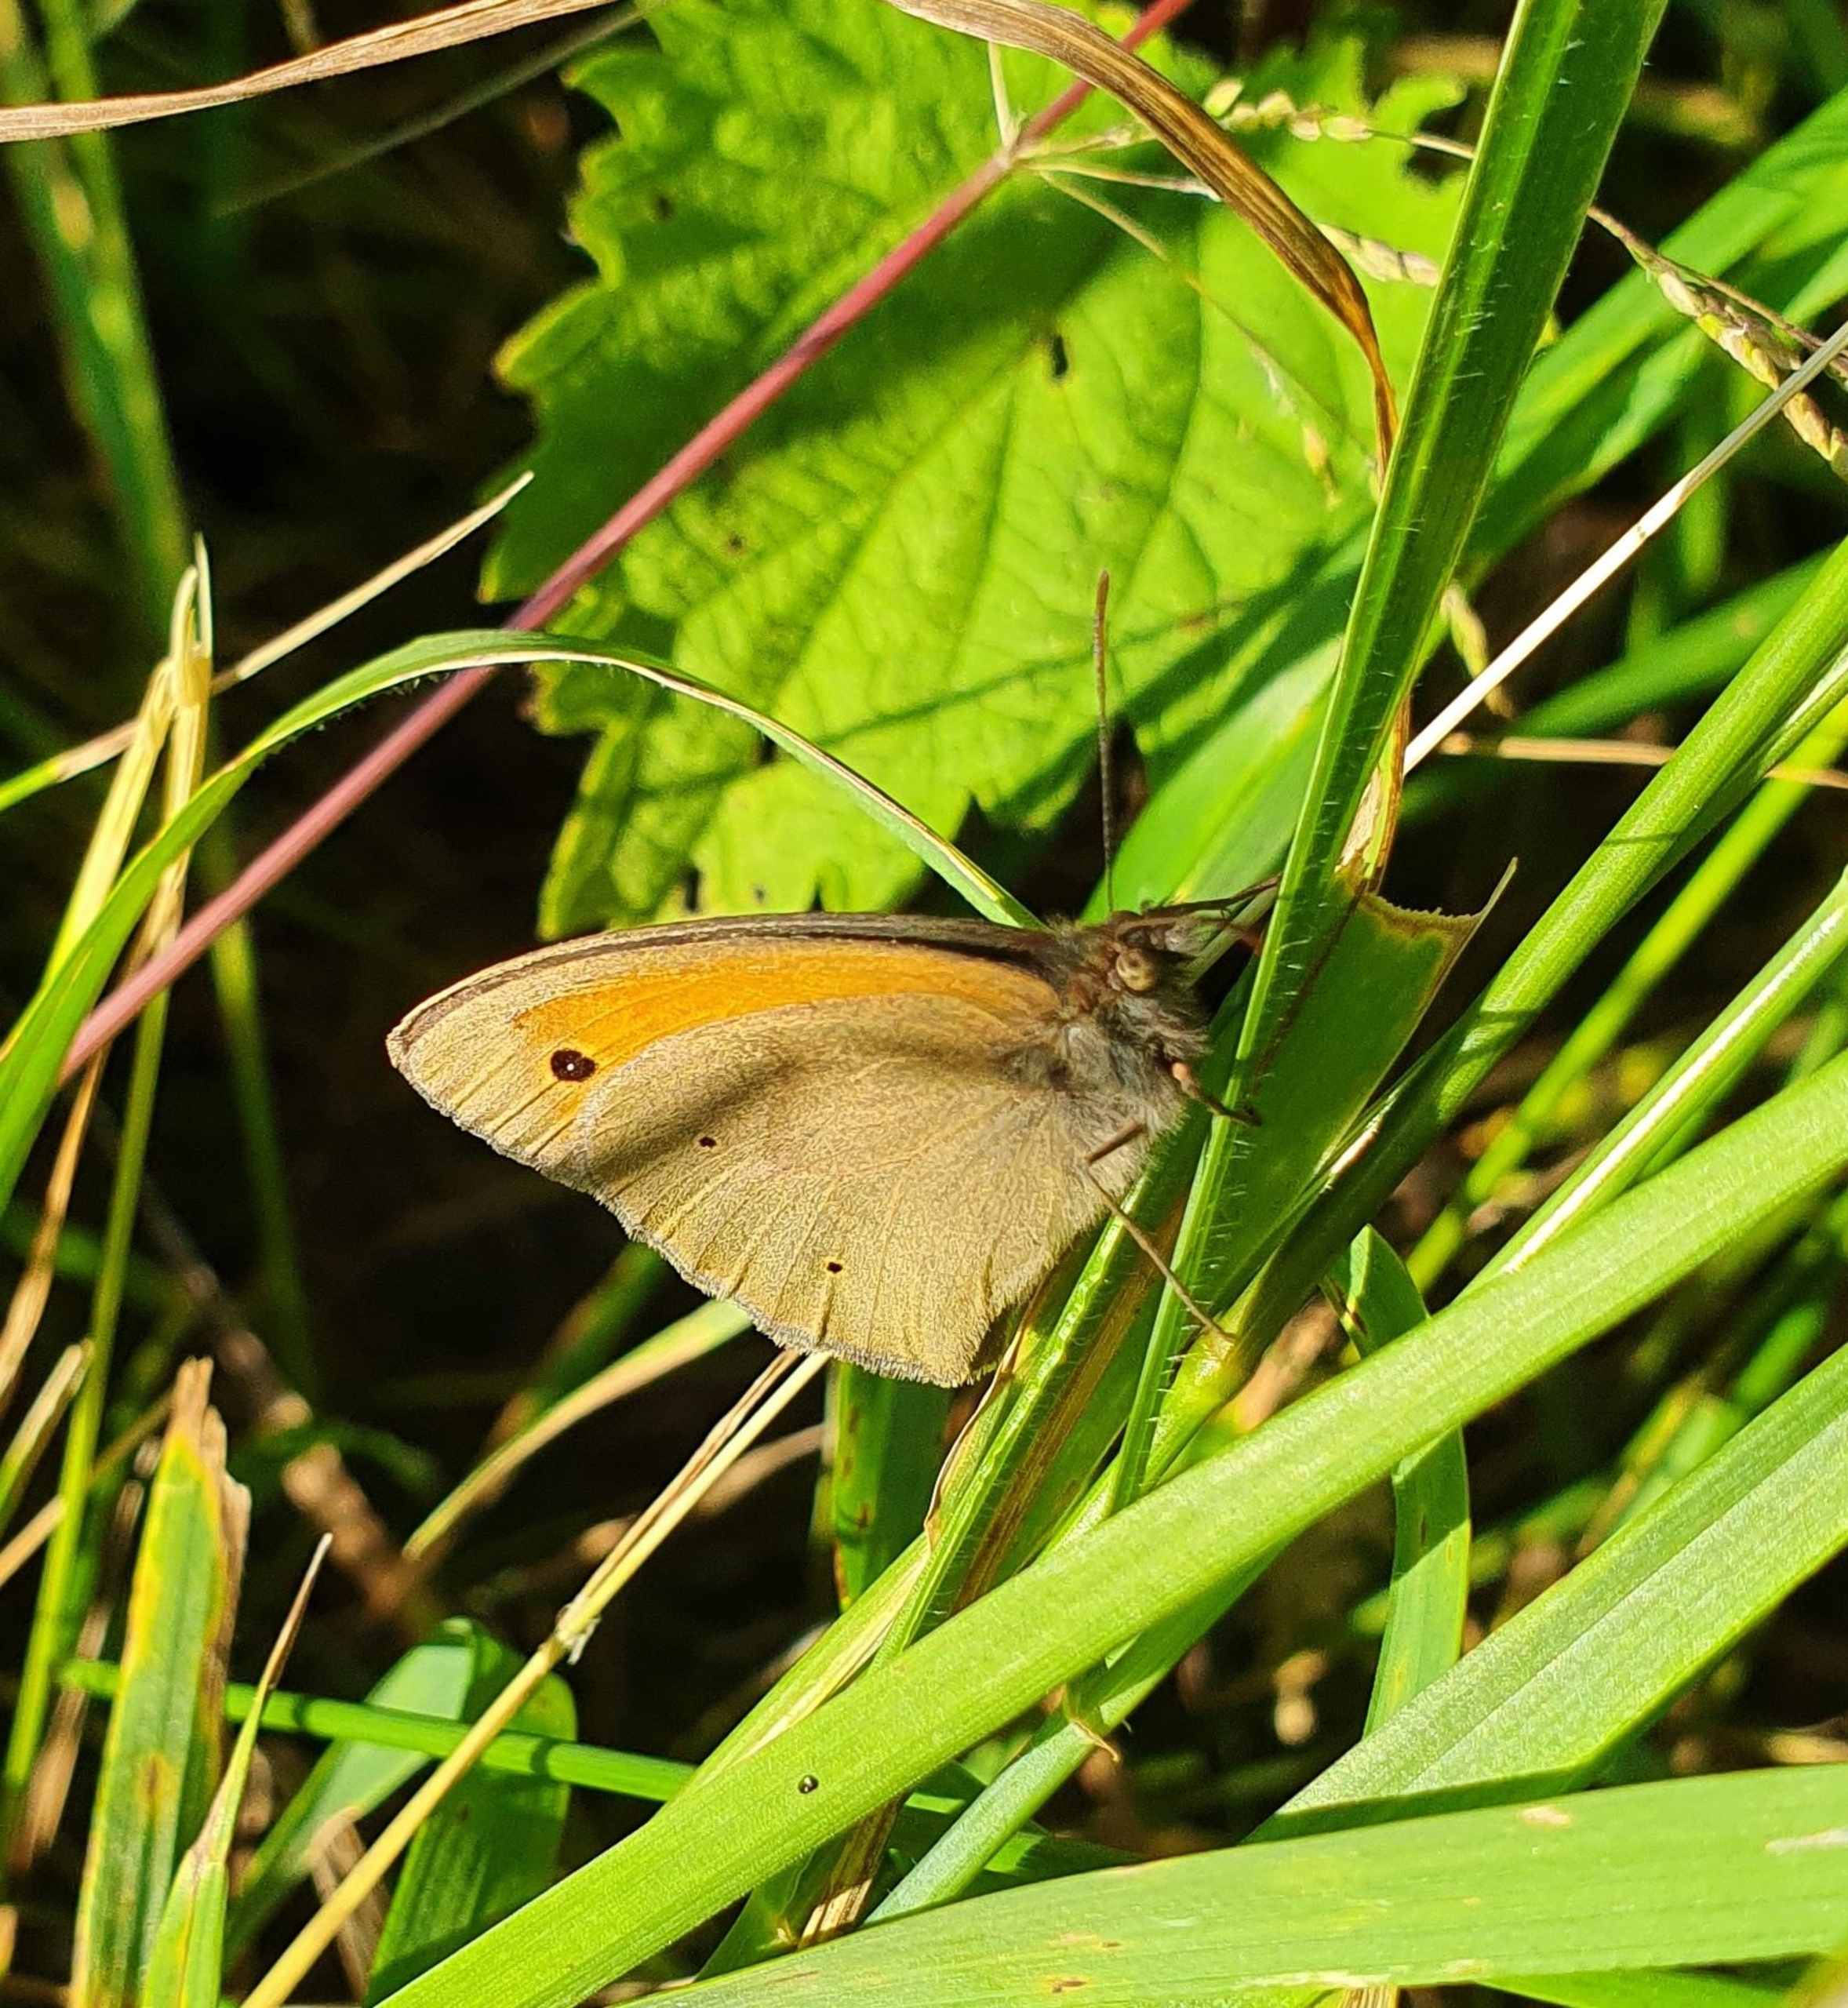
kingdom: Animalia
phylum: Arthropoda
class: Insecta
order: Lepidoptera
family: Nymphalidae
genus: Maniola
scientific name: Maniola jurtina
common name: Græsrandøje
